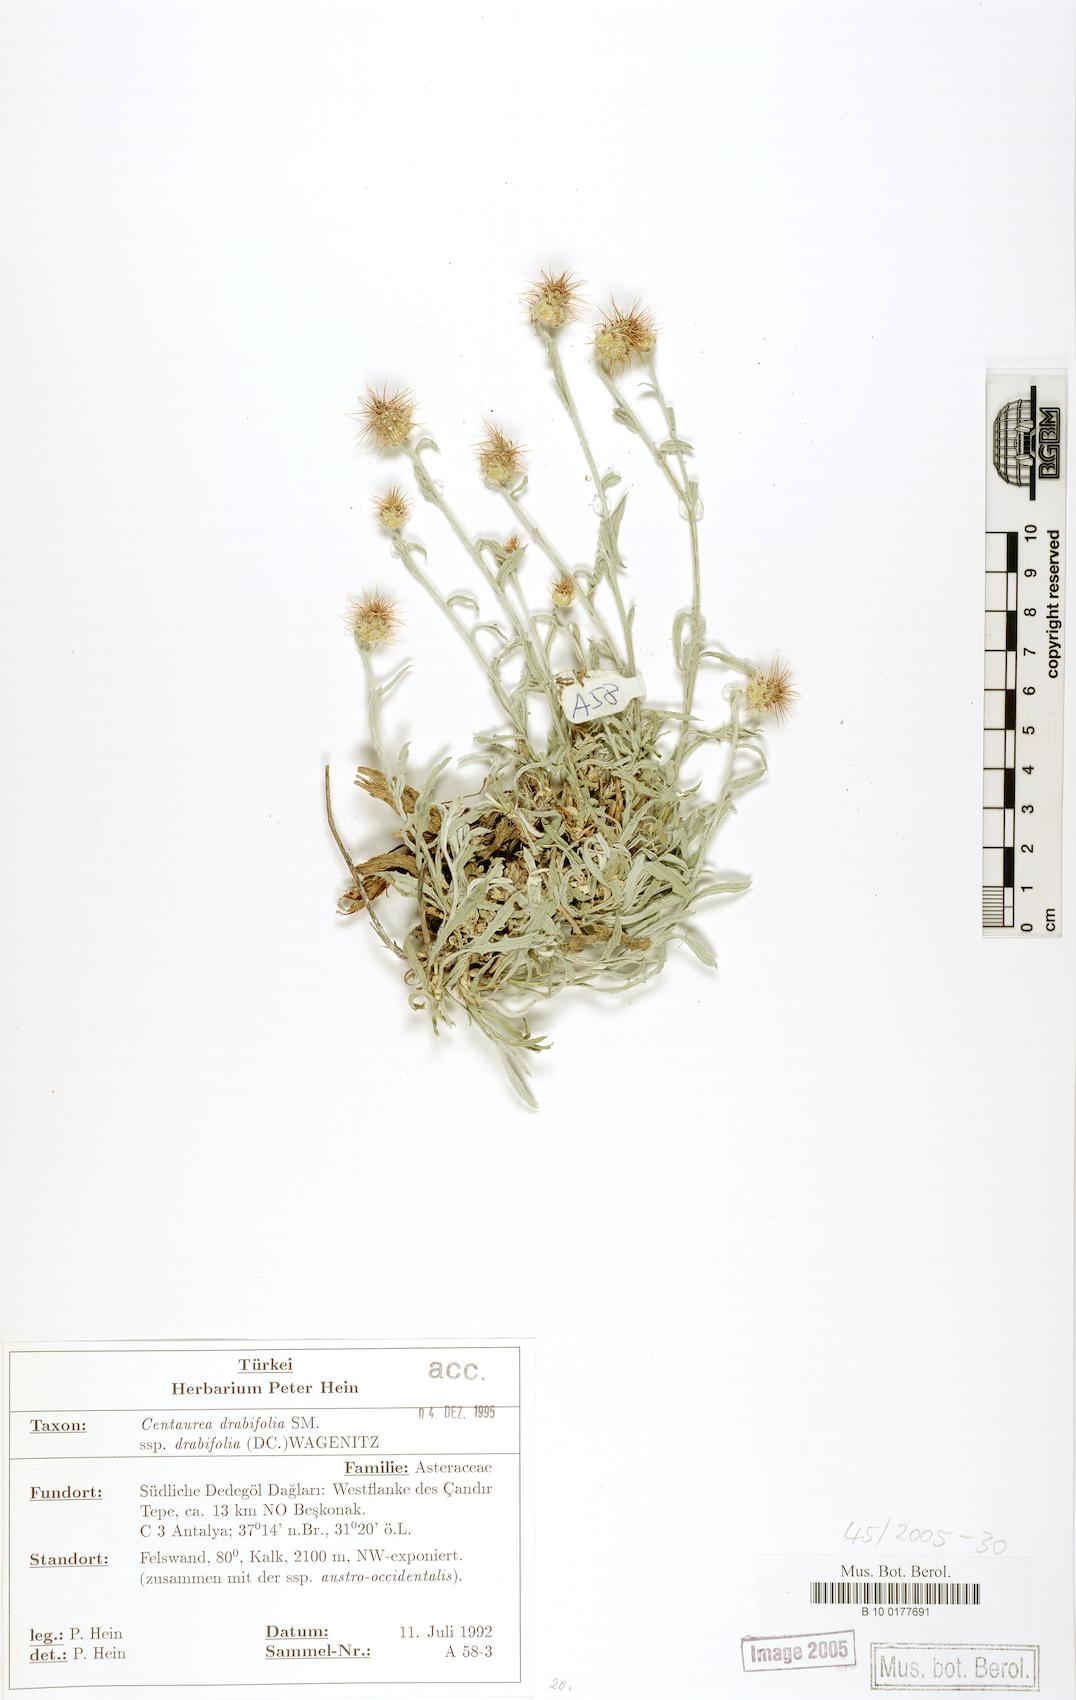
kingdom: Plantae
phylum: Tracheophyta
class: Magnoliopsida
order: Asterales
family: Asteraceae
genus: Centaurea
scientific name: Centaurea drabifolia
